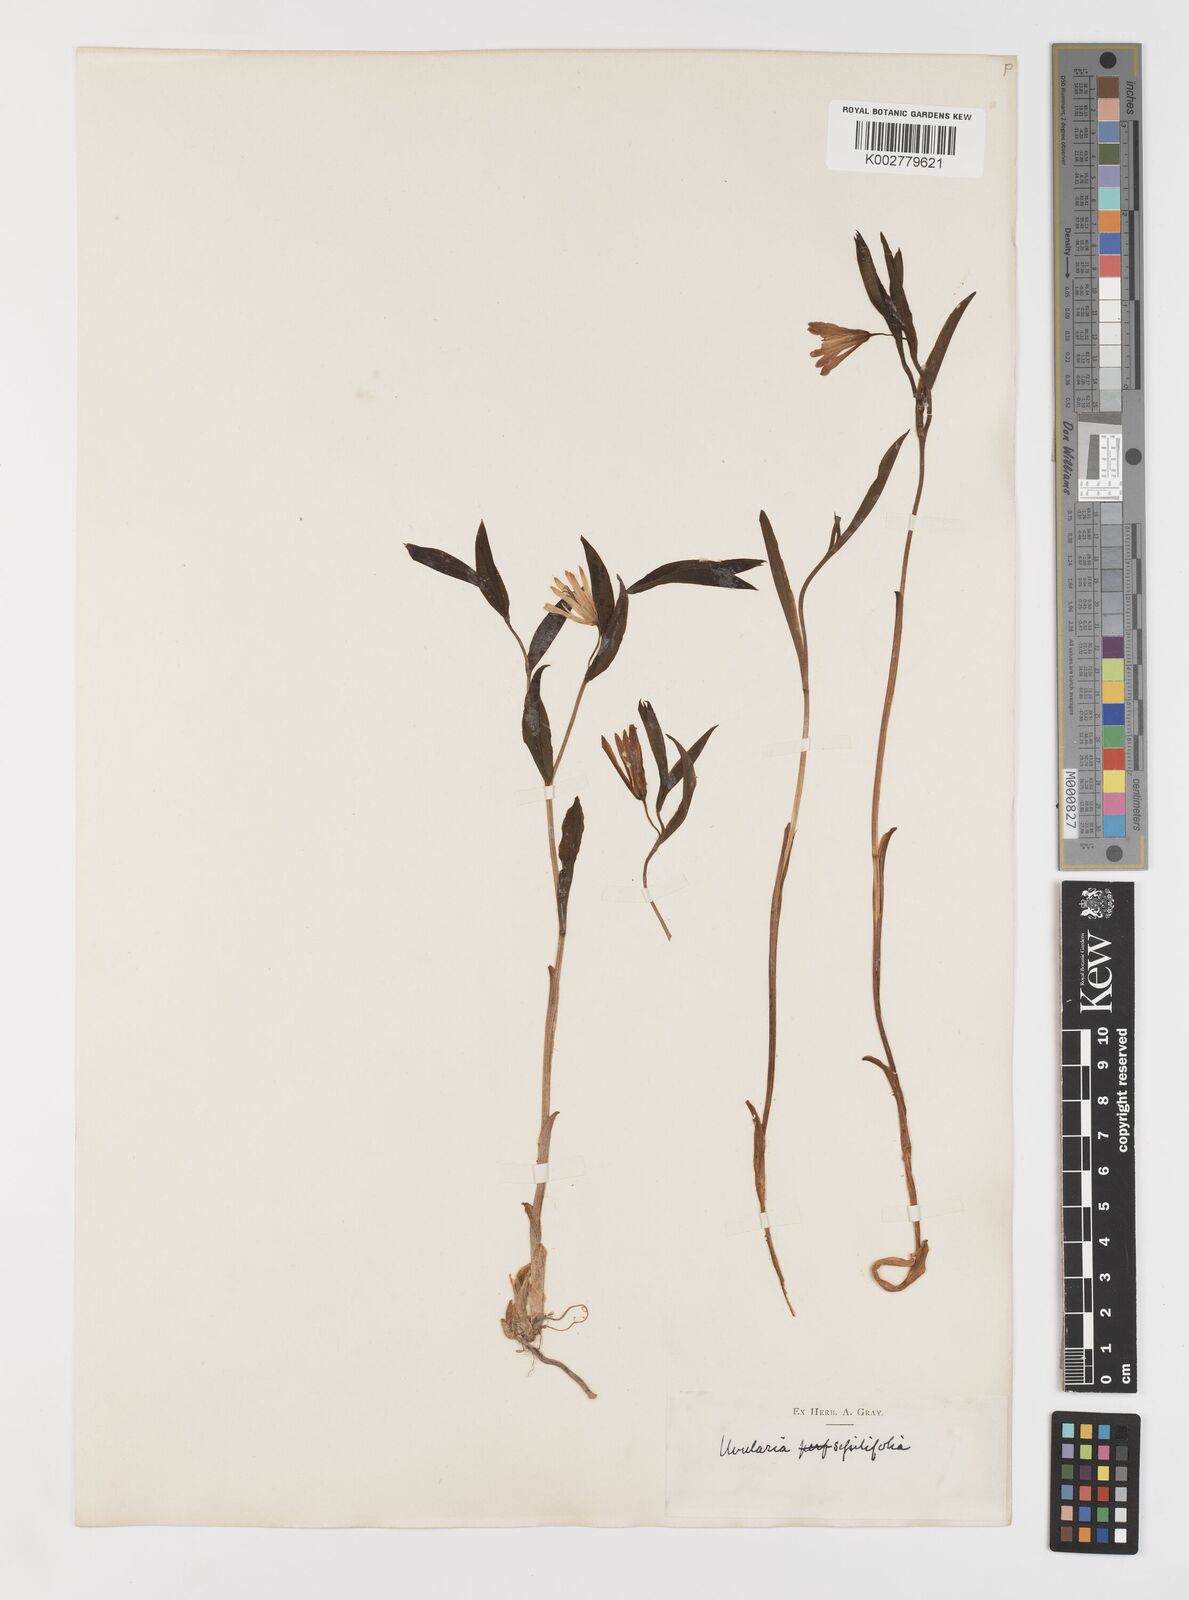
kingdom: Plantae
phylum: Tracheophyta
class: Liliopsida
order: Liliales
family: Colchicaceae
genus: Uvularia
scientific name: Uvularia sessilifolia
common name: Straw-lily
